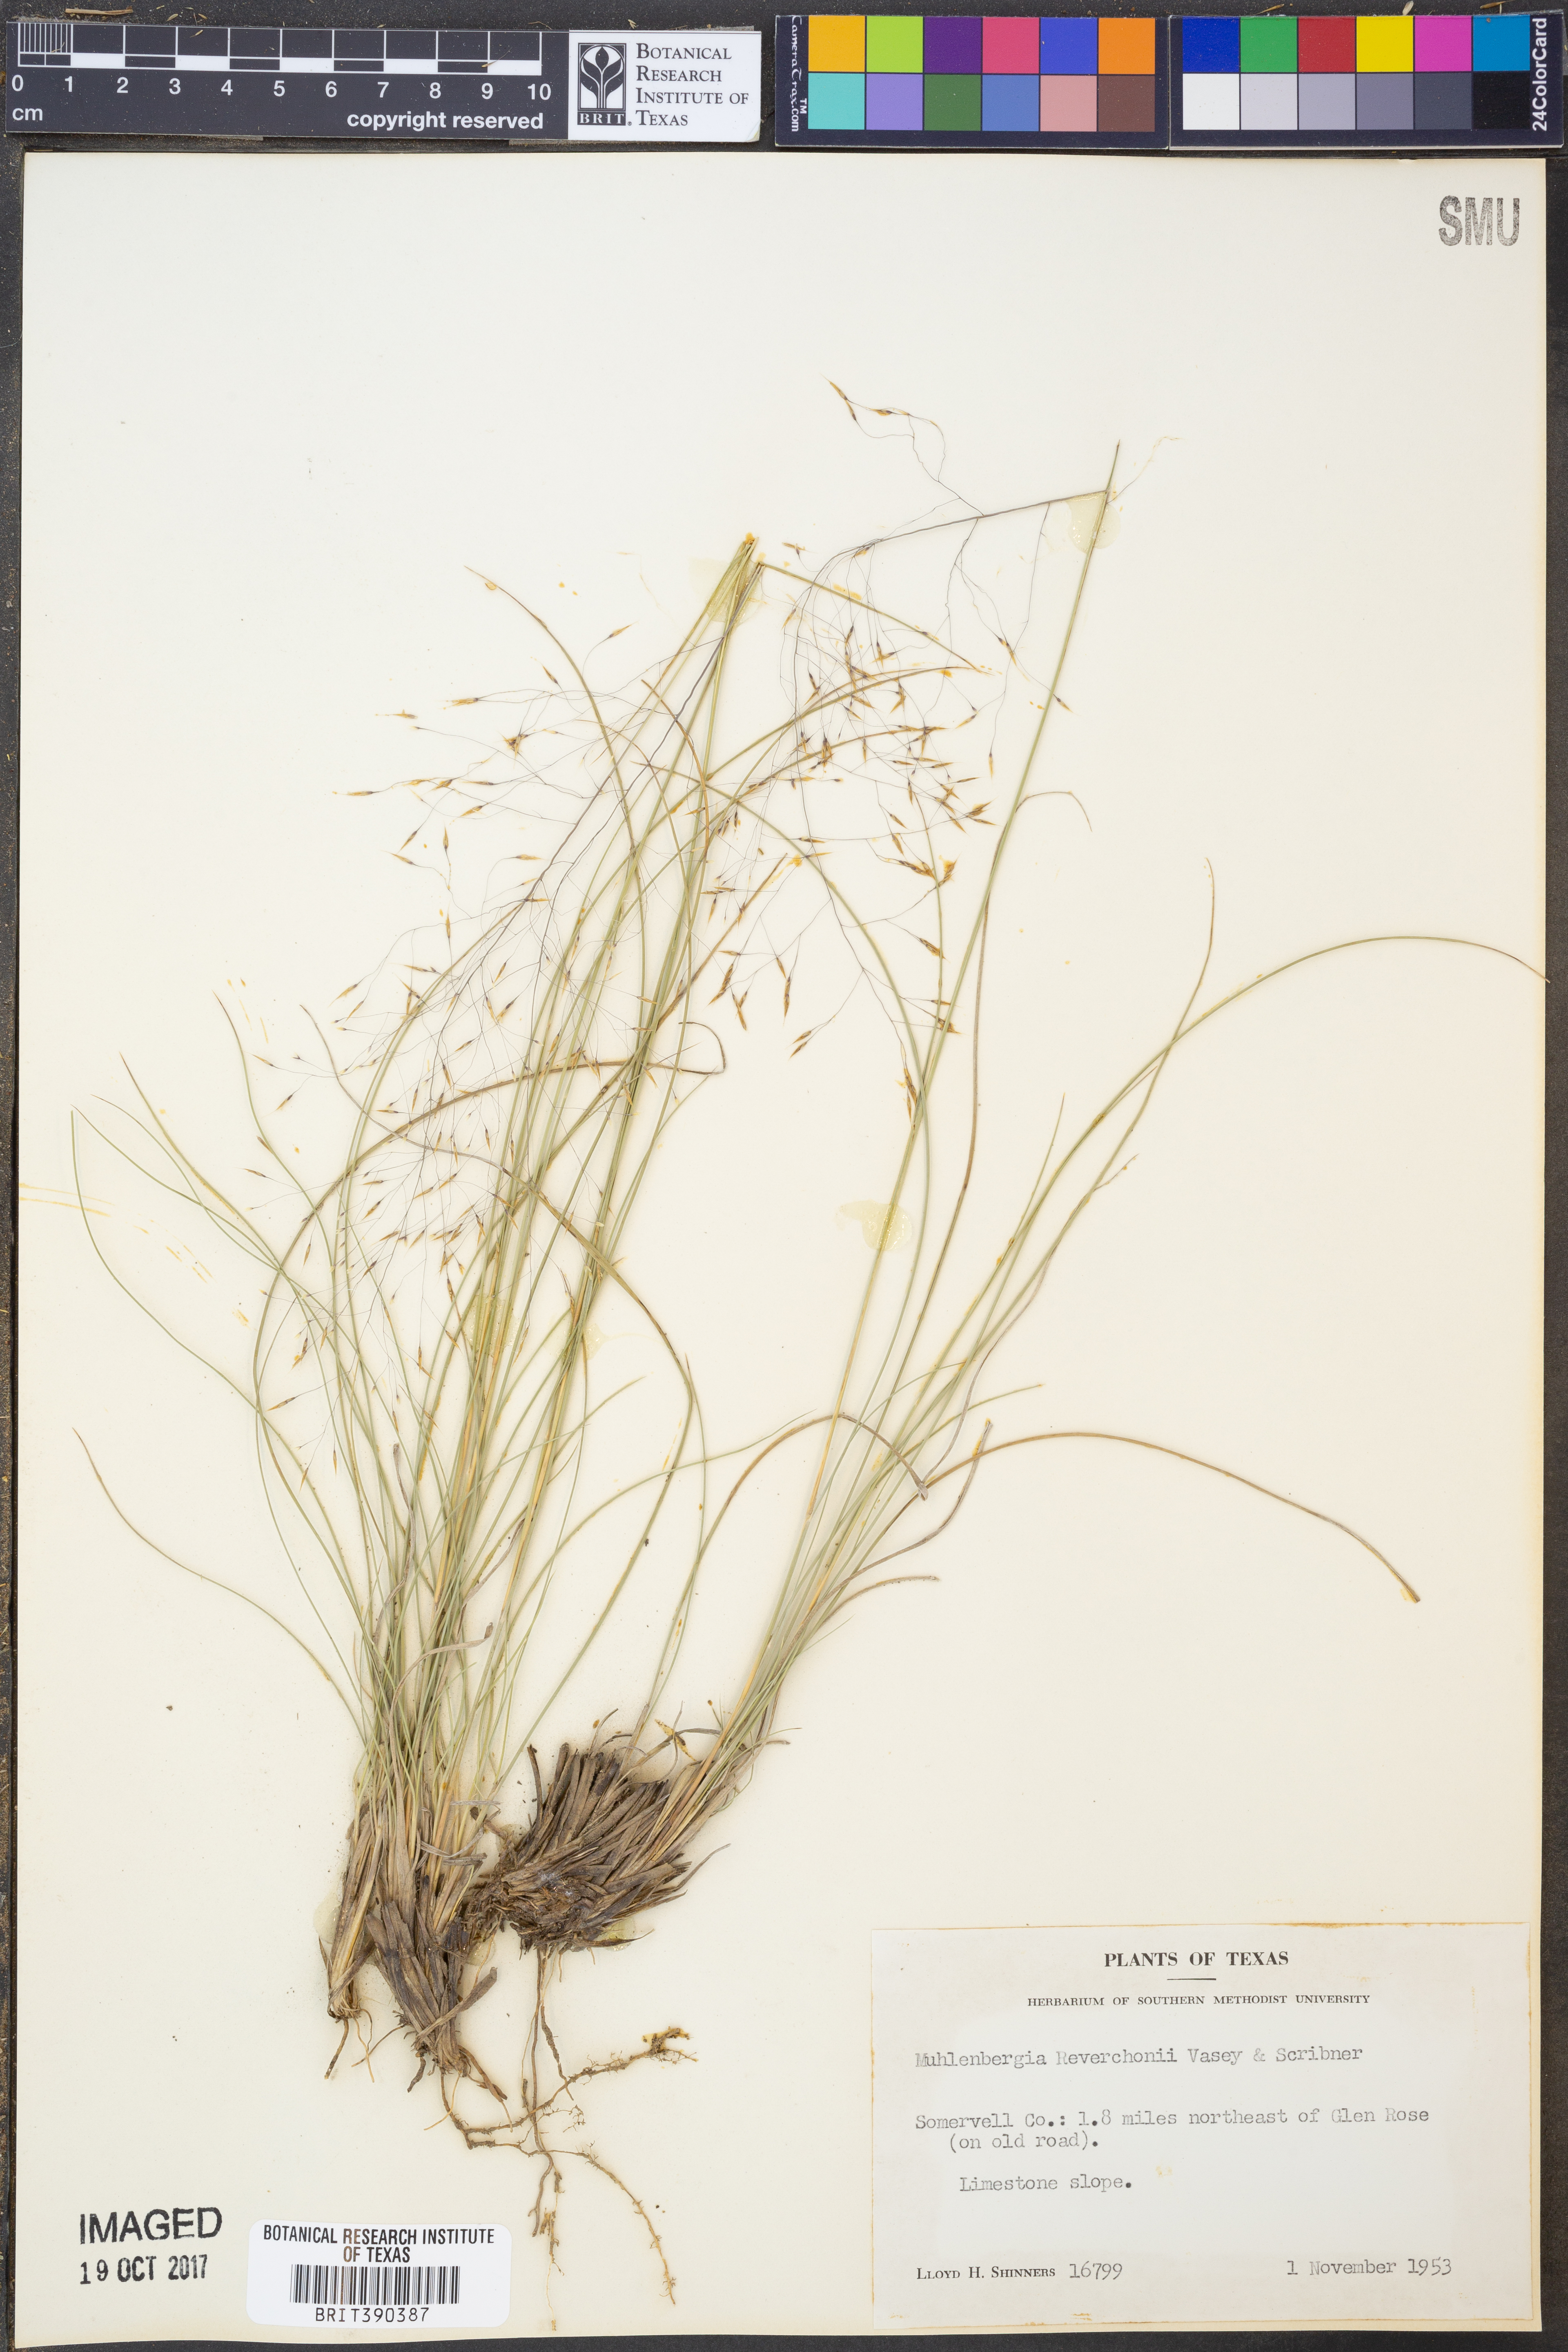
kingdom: Plantae
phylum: Tracheophyta
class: Liliopsida
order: Poales
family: Poaceae
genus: Muhlenbergia
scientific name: Muhlenbergia reverchonii
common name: Seep muhly
